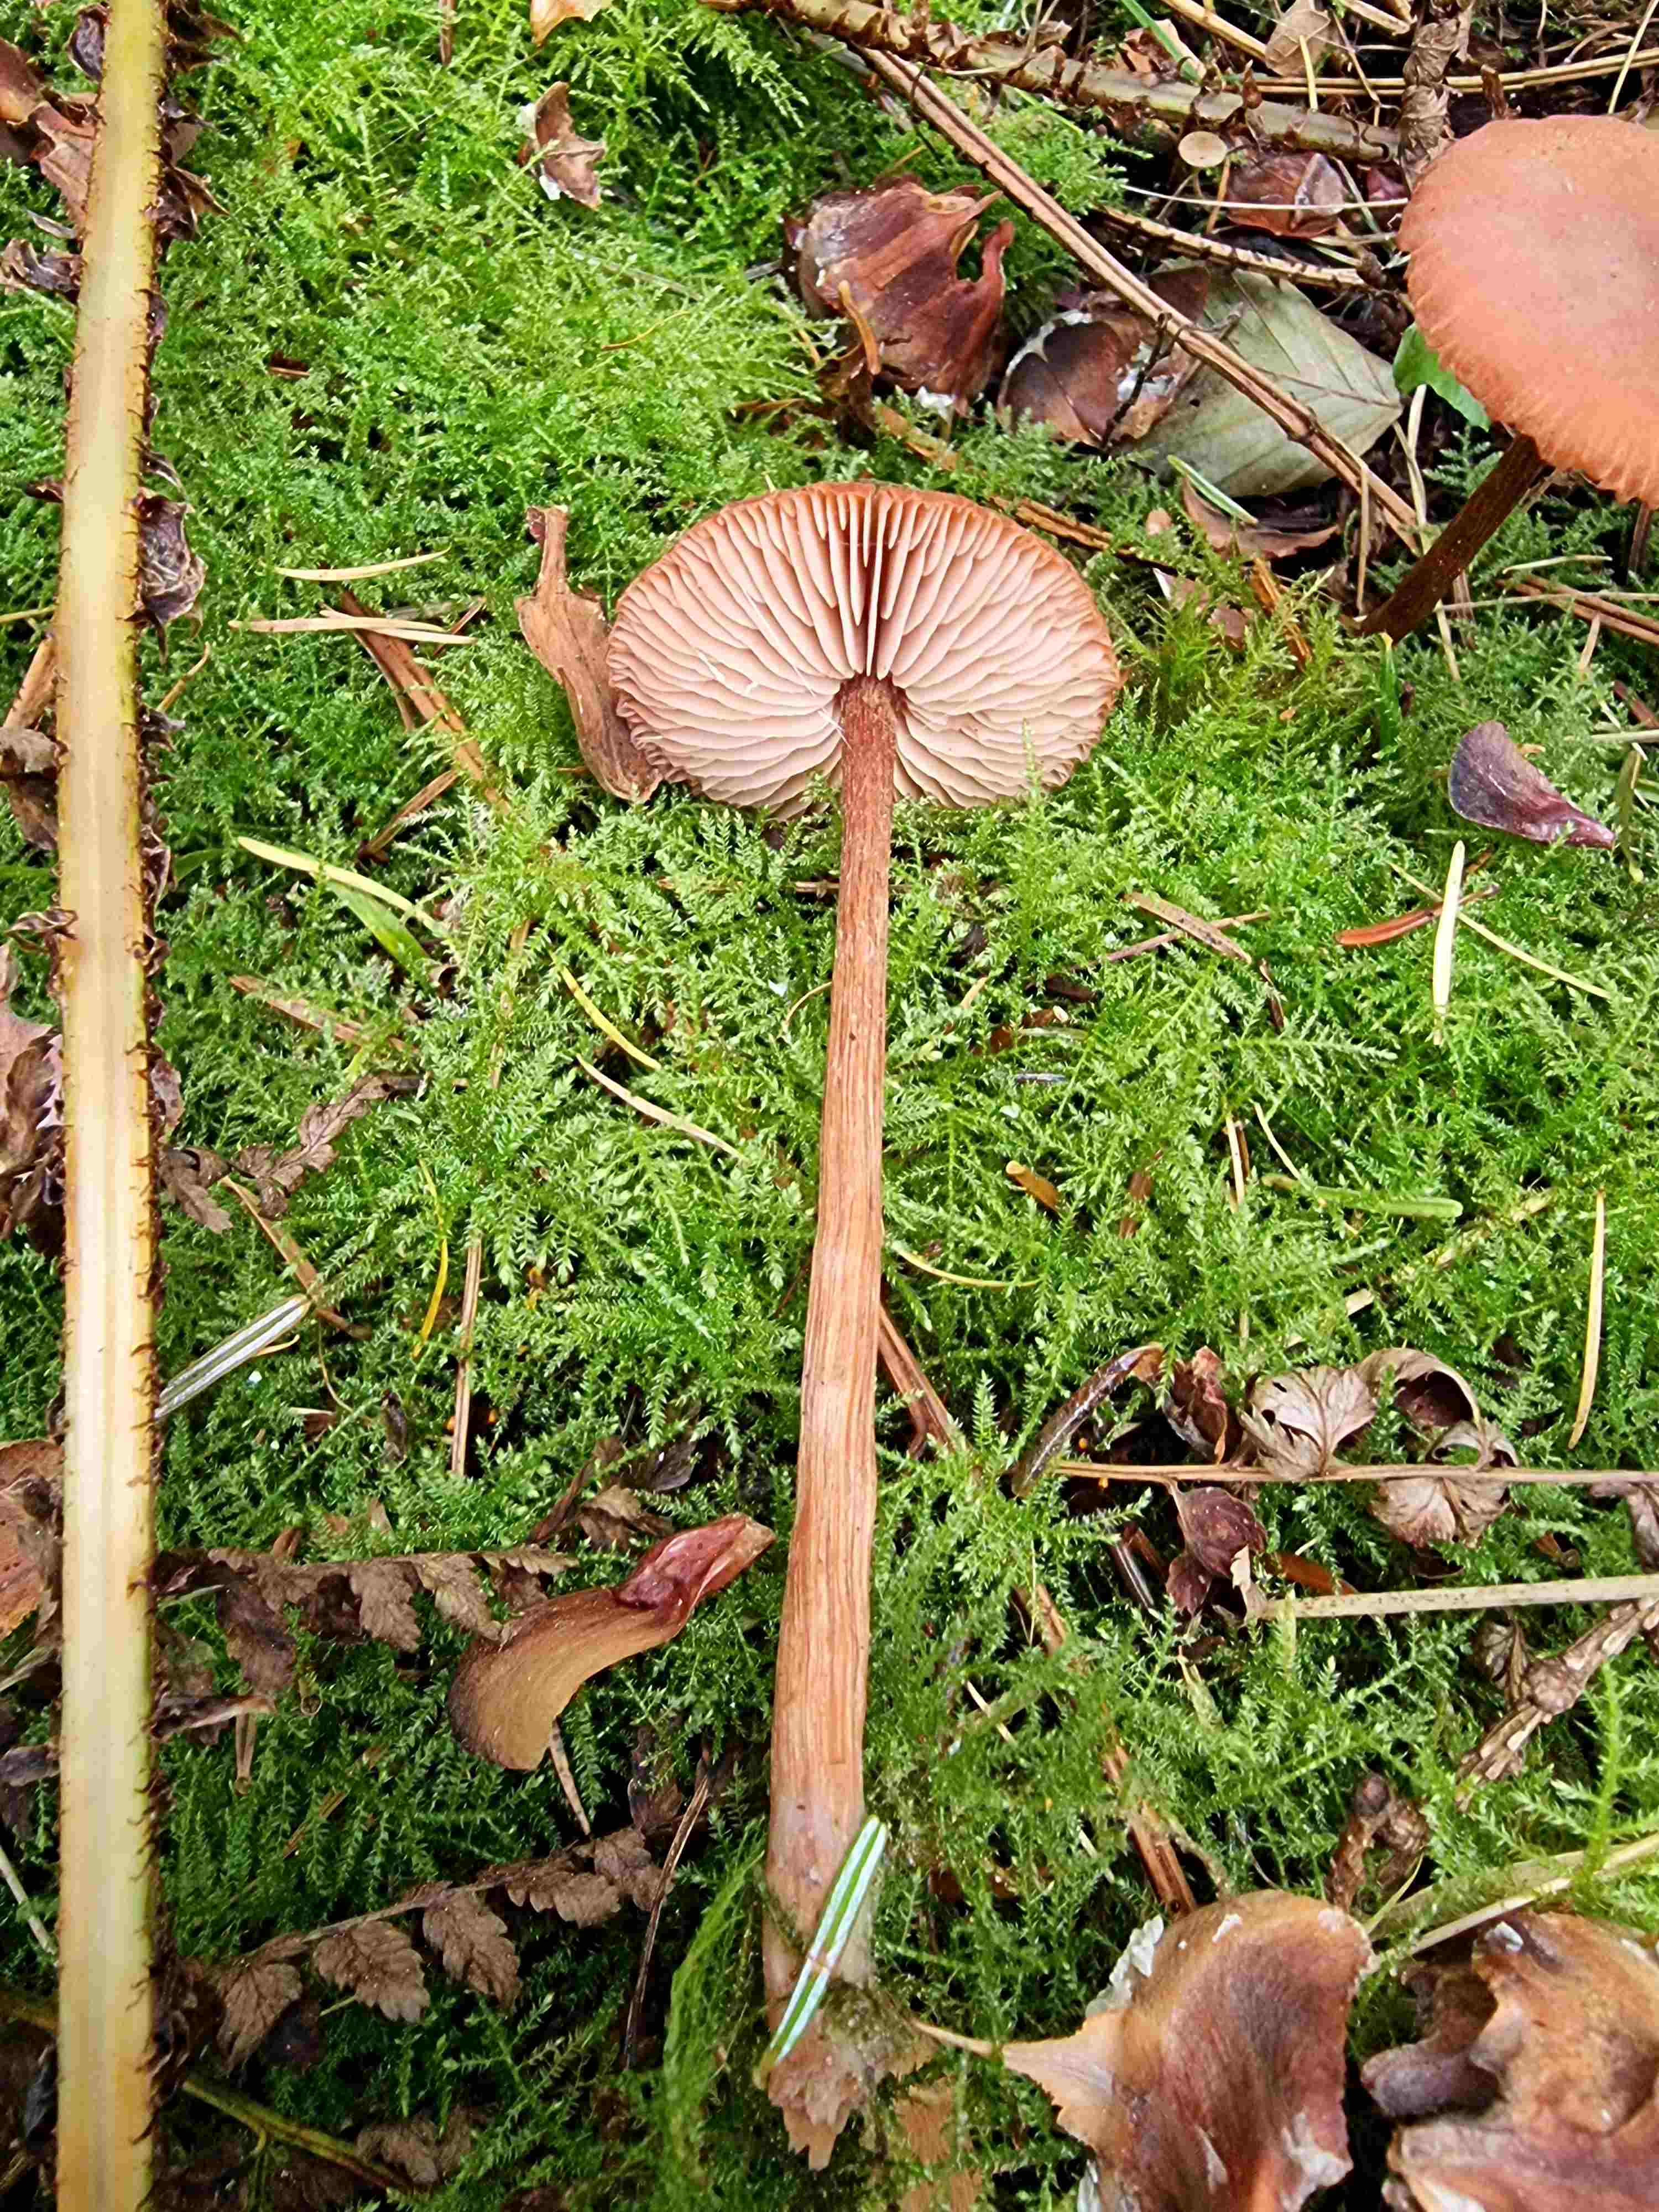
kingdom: Fungi
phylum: Basidiomycota
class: Agaricomycetes
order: Agaricales
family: Hydnangiaceae
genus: Laccaria
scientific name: Laccaria proxima
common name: stor ametysthat
